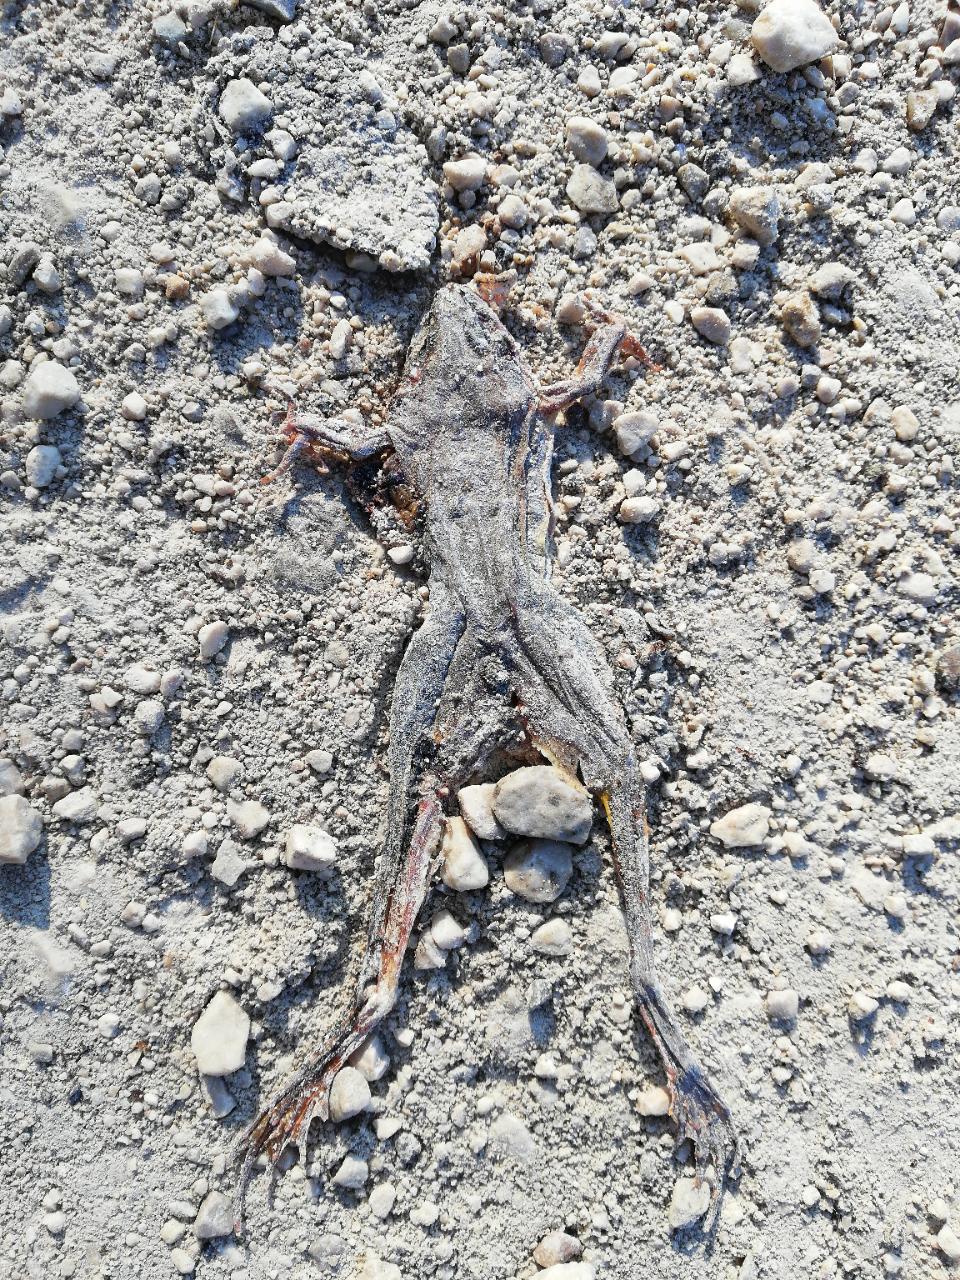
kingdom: Animalia
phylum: Chordata
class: Amphibia
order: Anura
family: Ranidae
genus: Rana
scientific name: Rana dalmatina
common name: Agile frog
